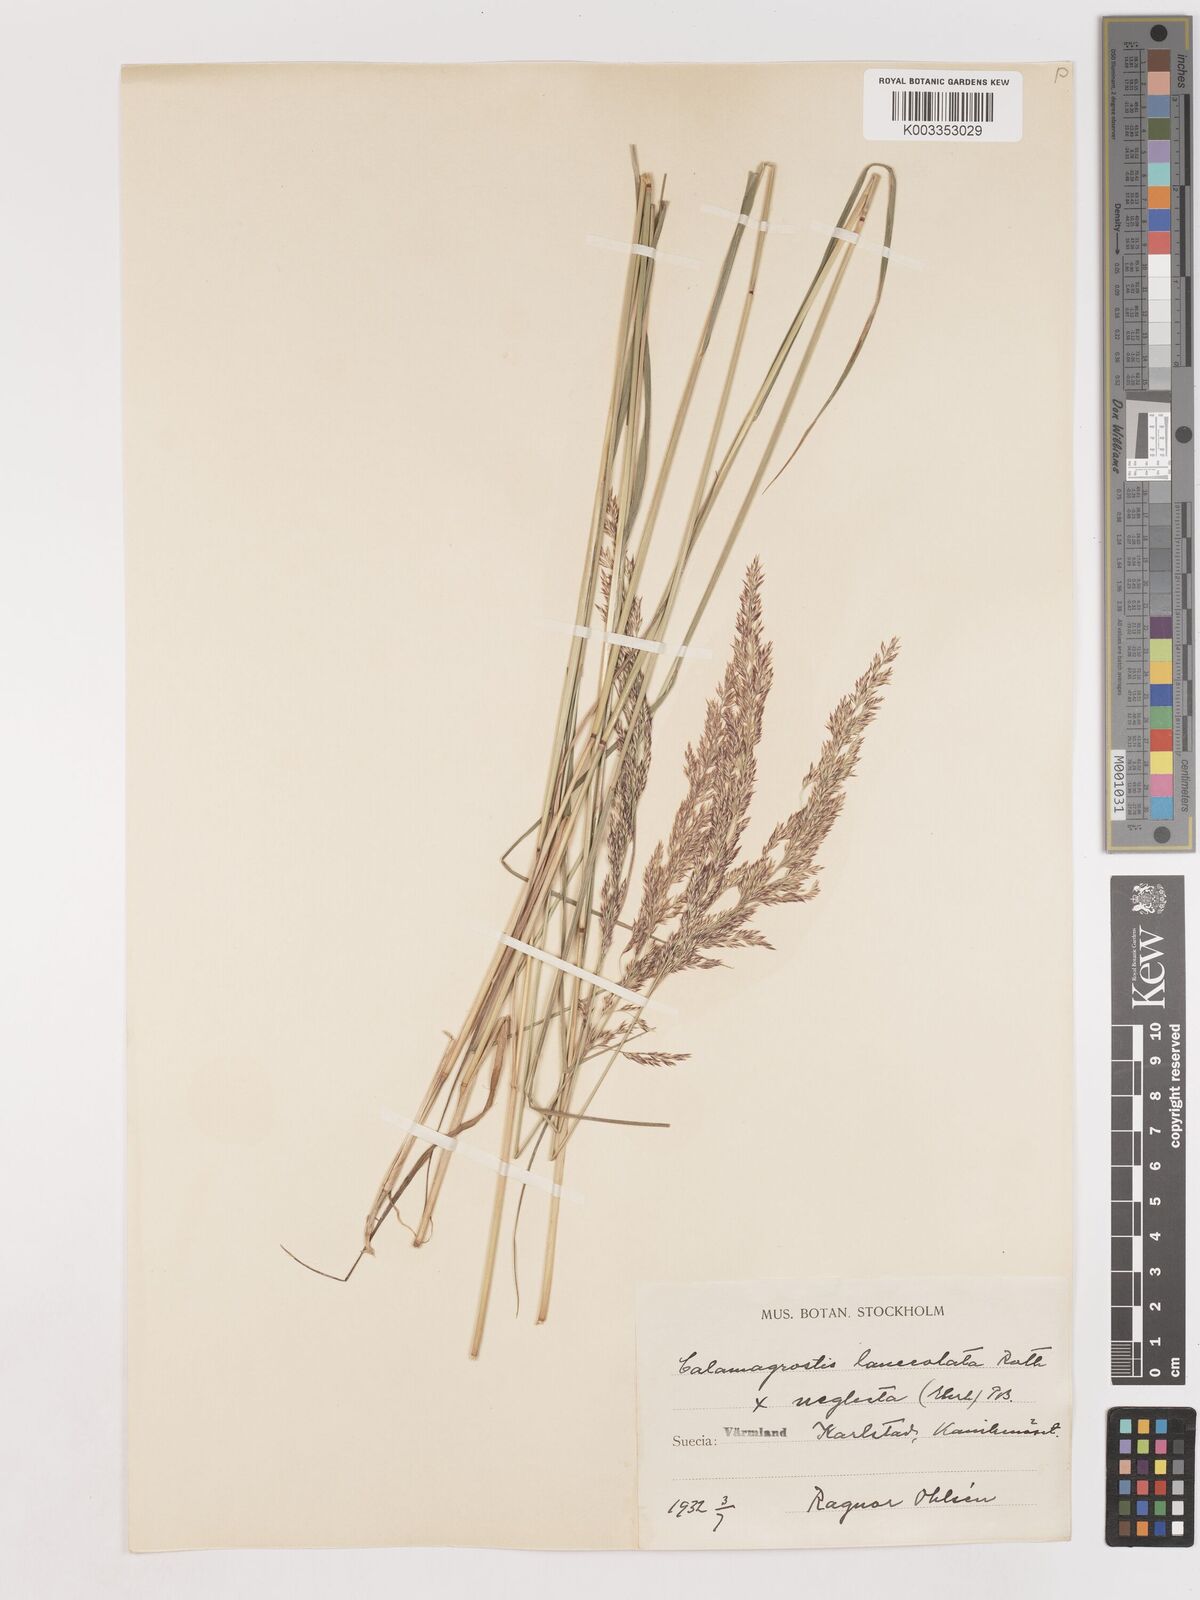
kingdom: Plantae
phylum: Tracheophyta
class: Liliopsida
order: Poales
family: Poaceae
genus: Calamagrostis
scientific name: Calamagrostis canescens
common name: Purple small-reed
